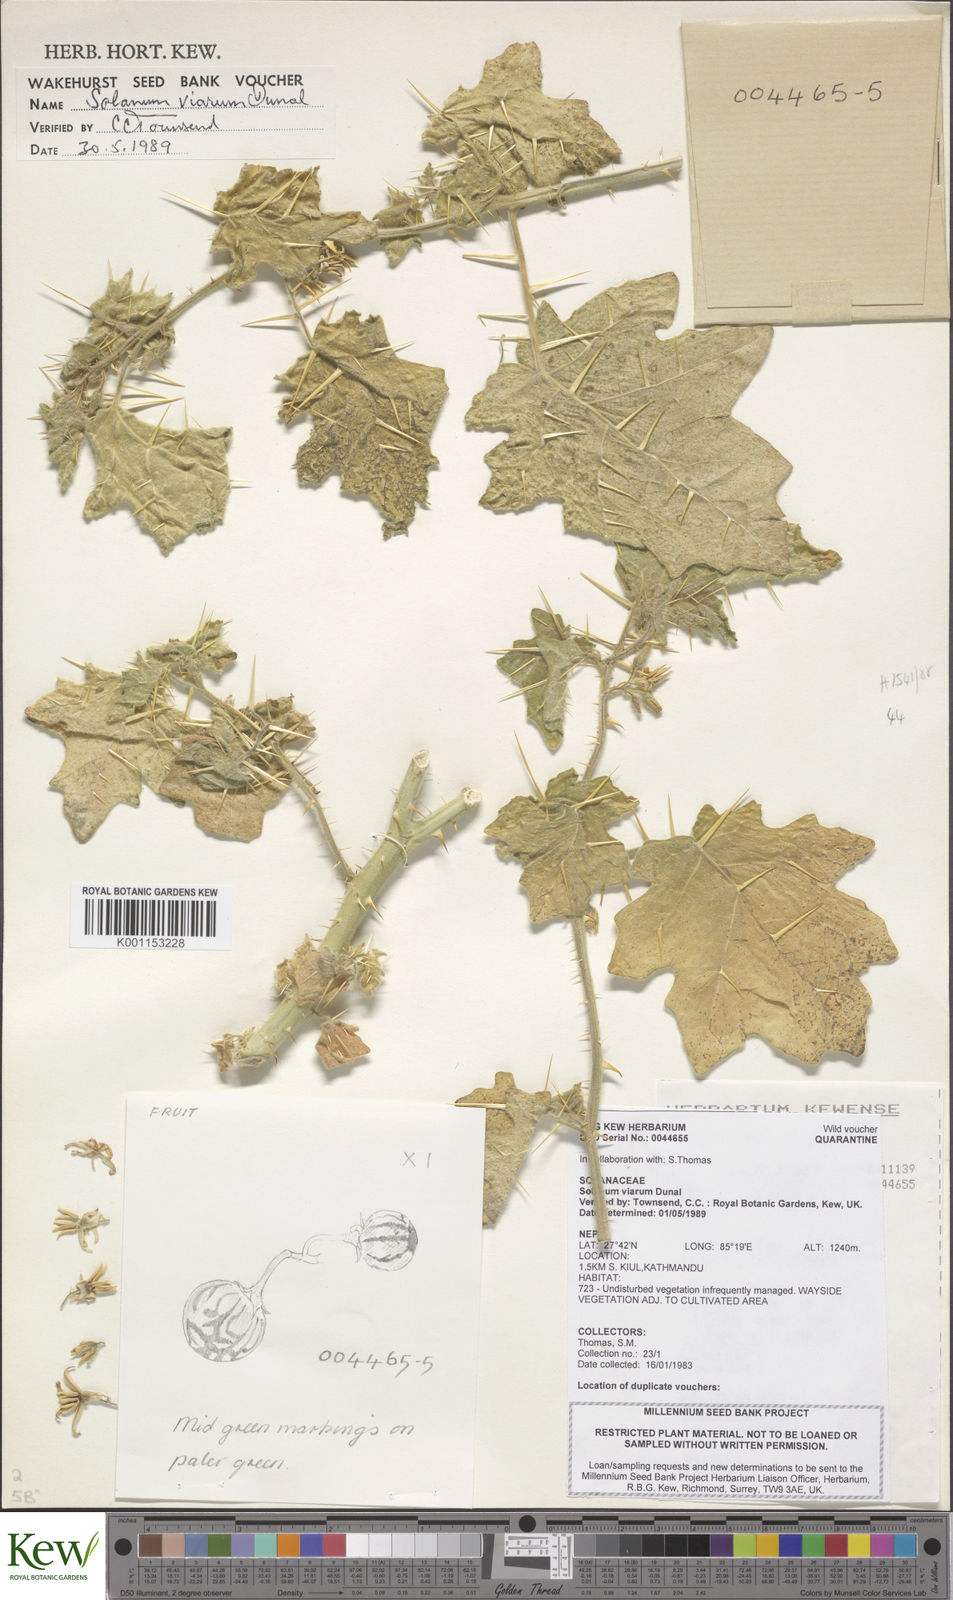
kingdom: Plantae
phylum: Tracheophyta
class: Magnoliopsida
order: Solanales
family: Solanaceae
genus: Solanum
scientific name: Solanum viarum
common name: Tropical soda apple
